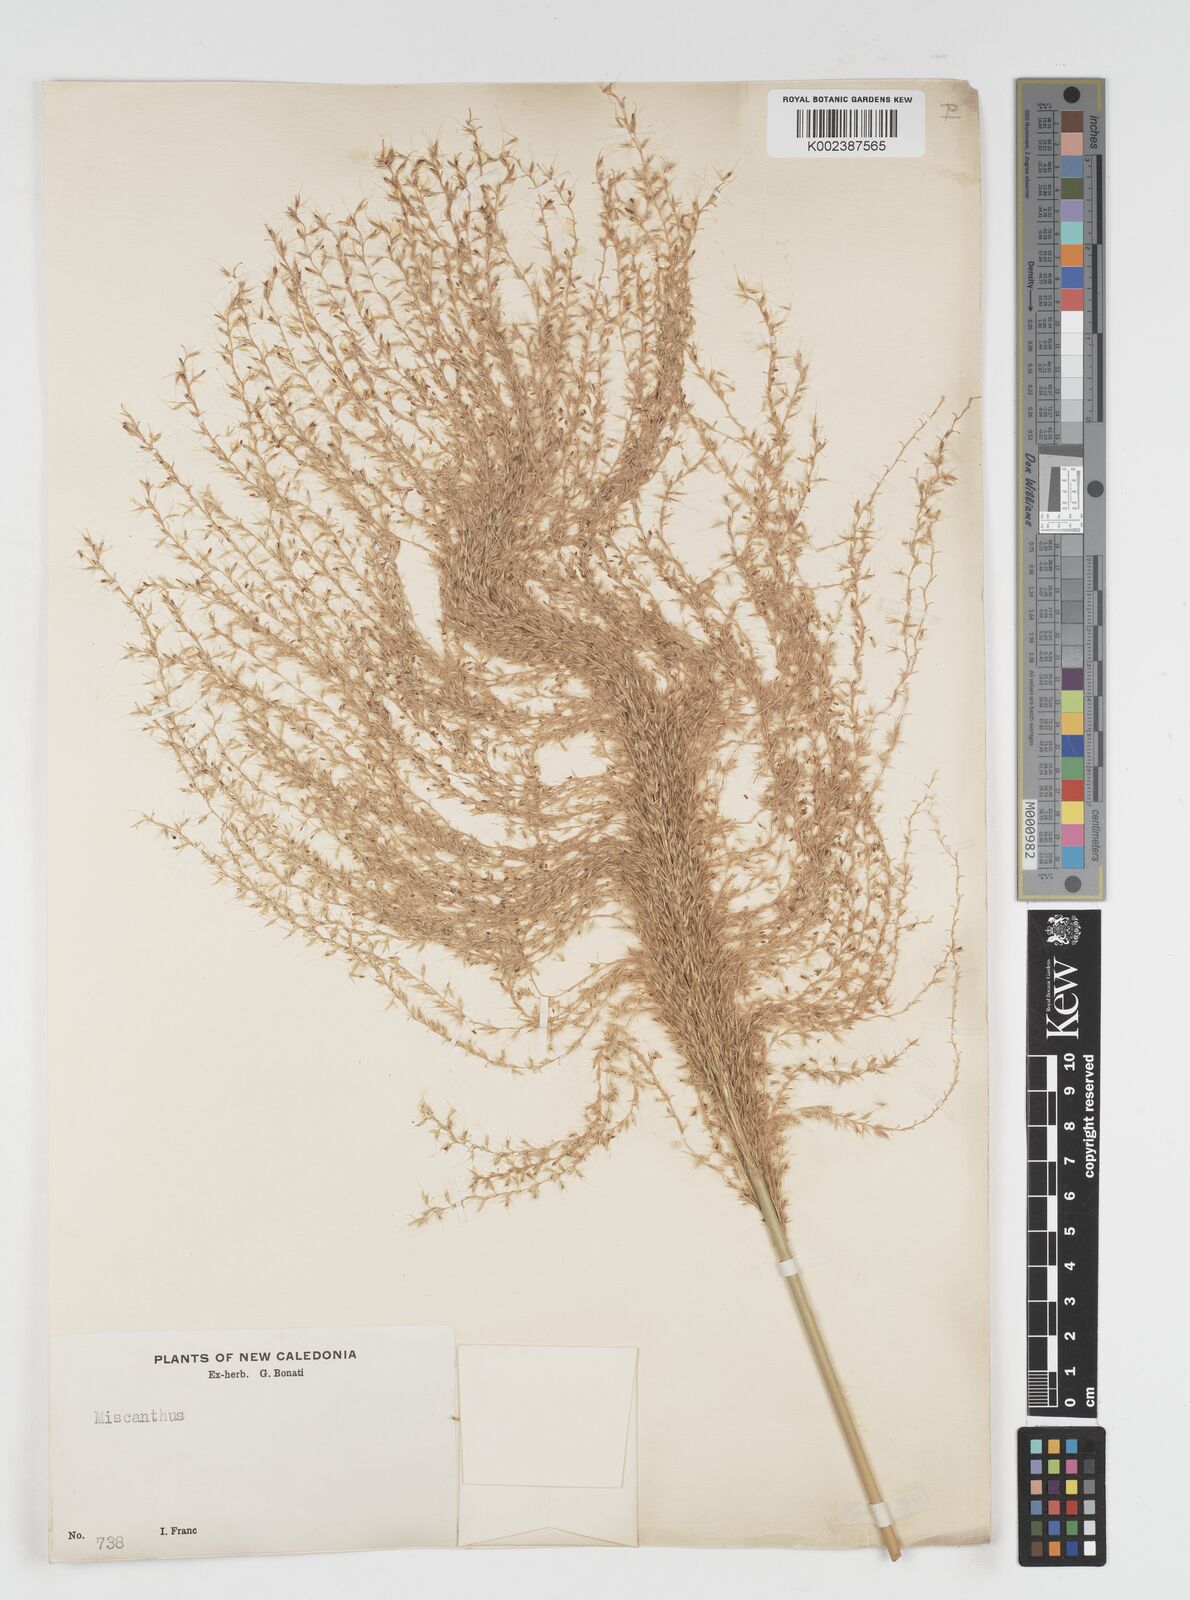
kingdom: Plantae
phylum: Tracheophyta
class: Liliopsida
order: Poales
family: Poaceae
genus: Miscanthus
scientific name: Miscanthus floridulus
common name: Pacific island silvergrass
